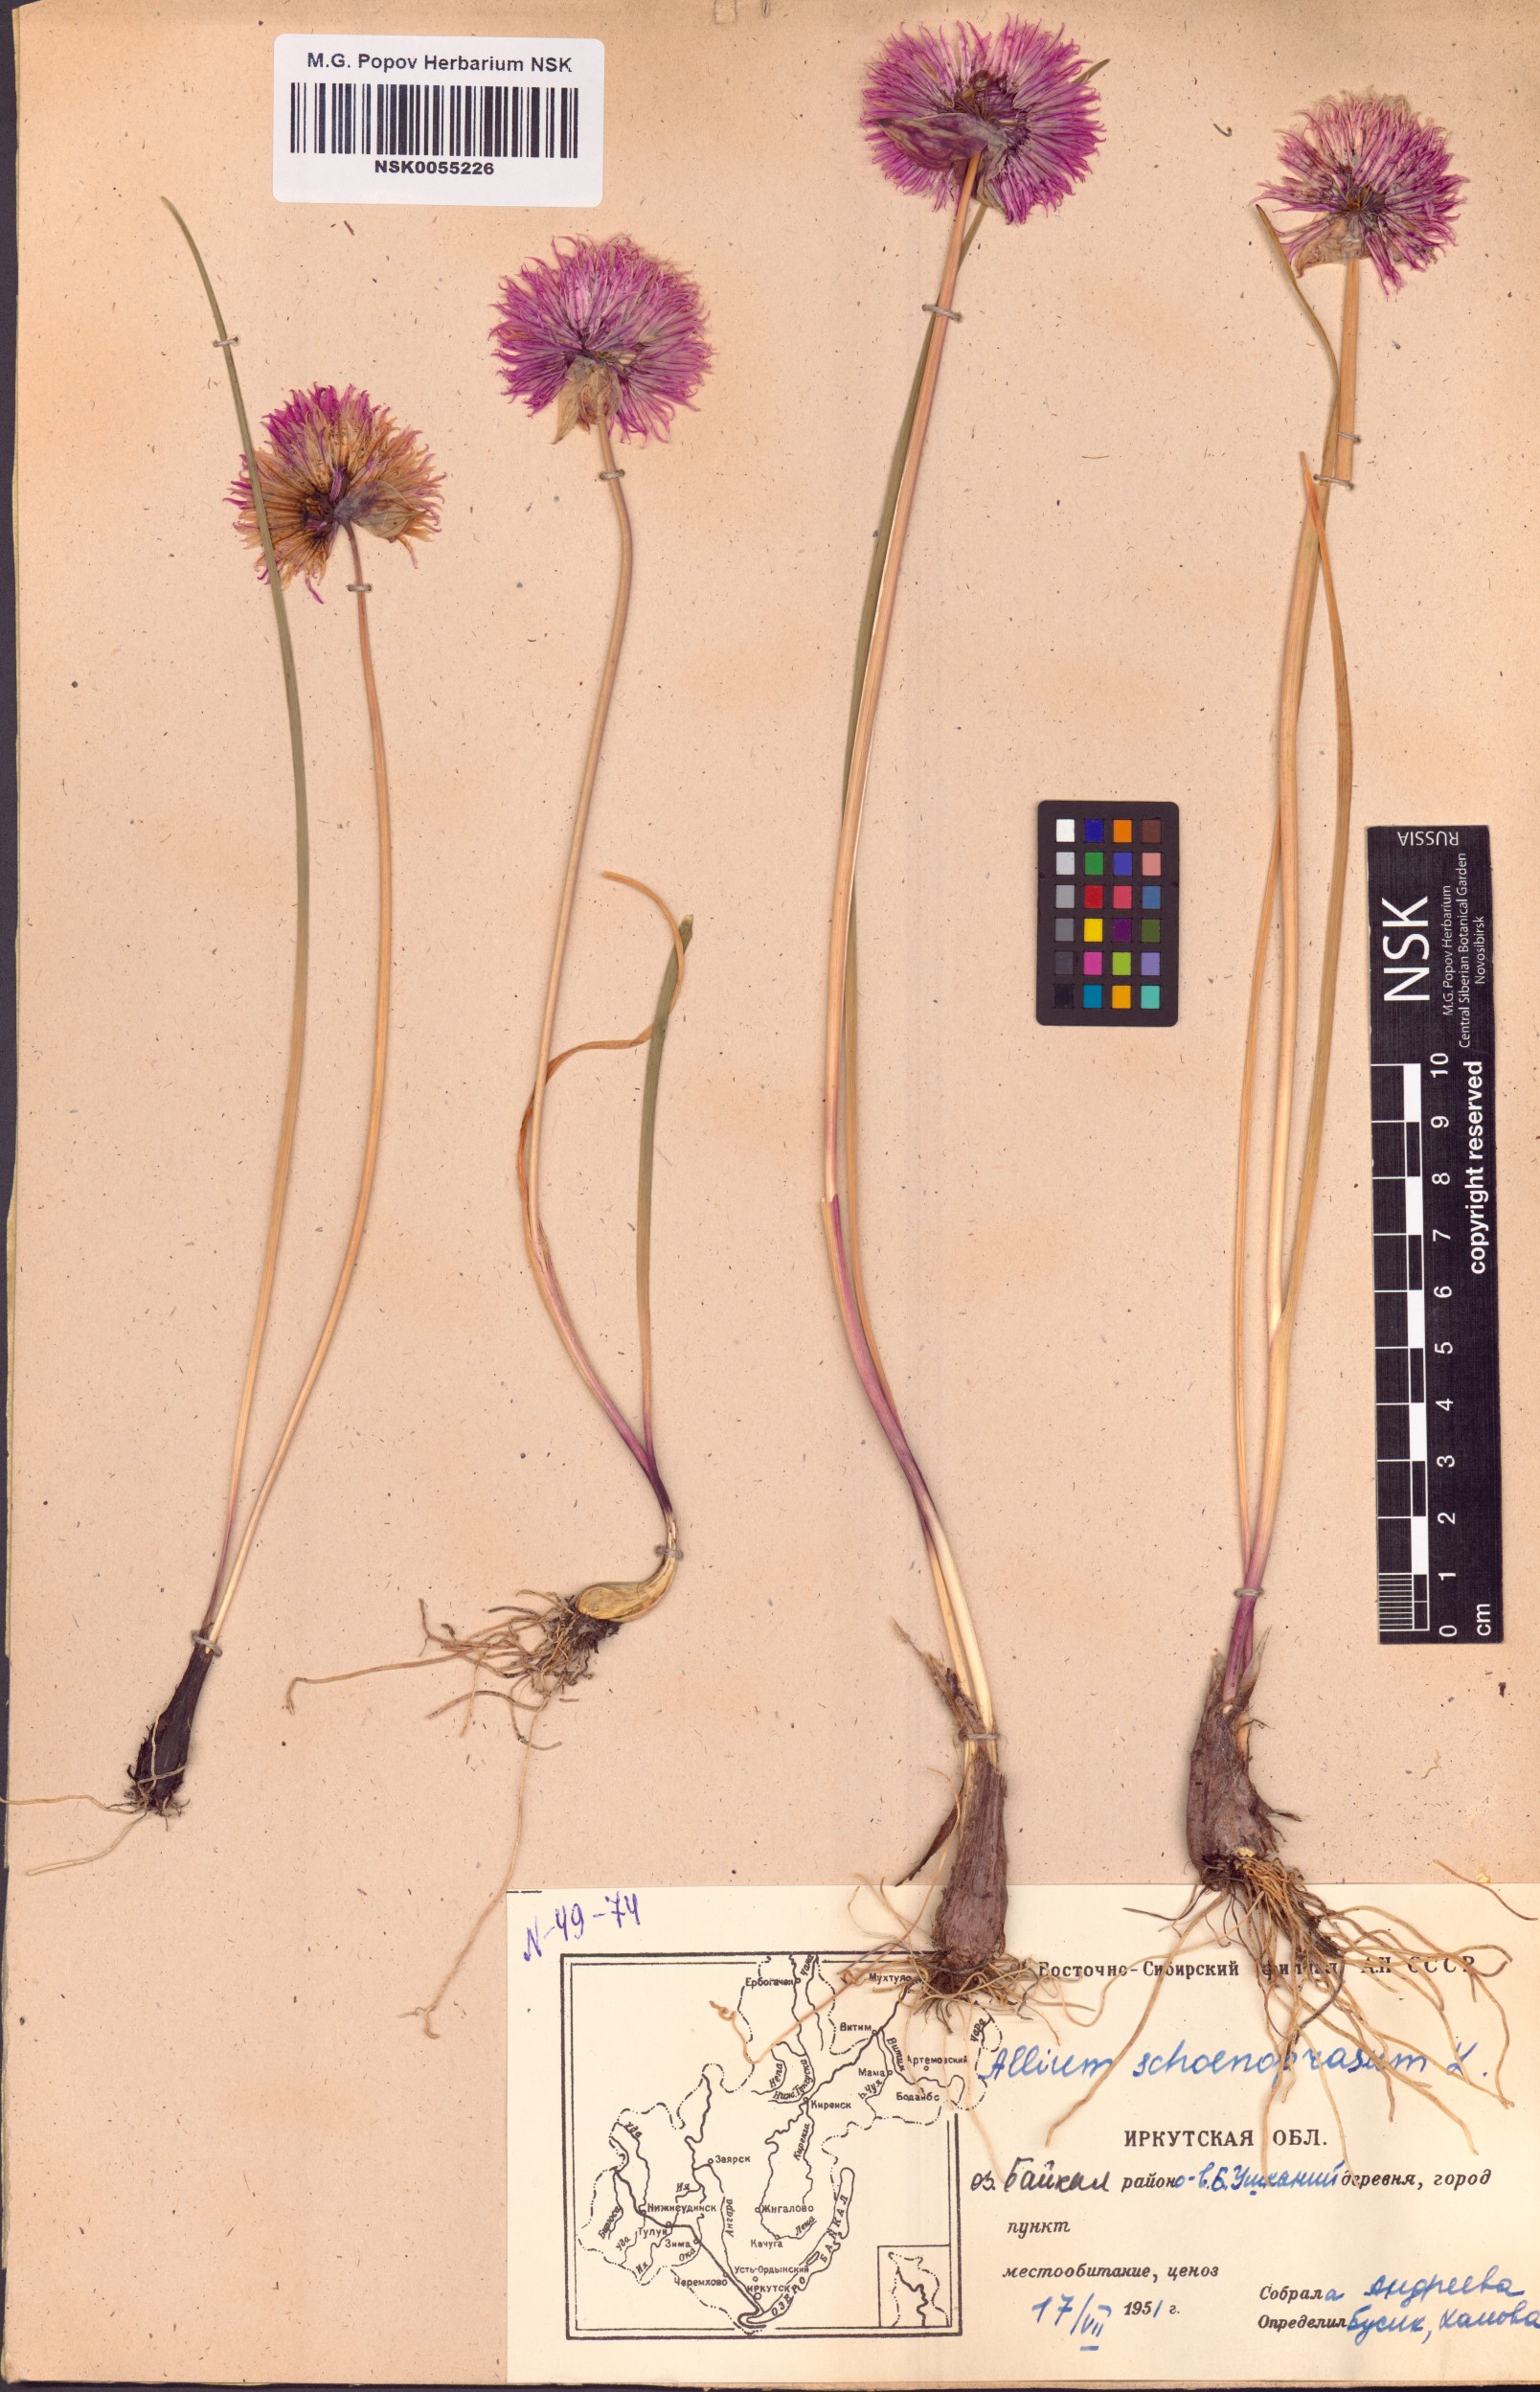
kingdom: Plantae
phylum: Tracheophyta
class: Liliopsida
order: Asparagales
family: Amaryllidaceae
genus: Allium
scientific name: Allium schoenoprasum
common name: Chives
